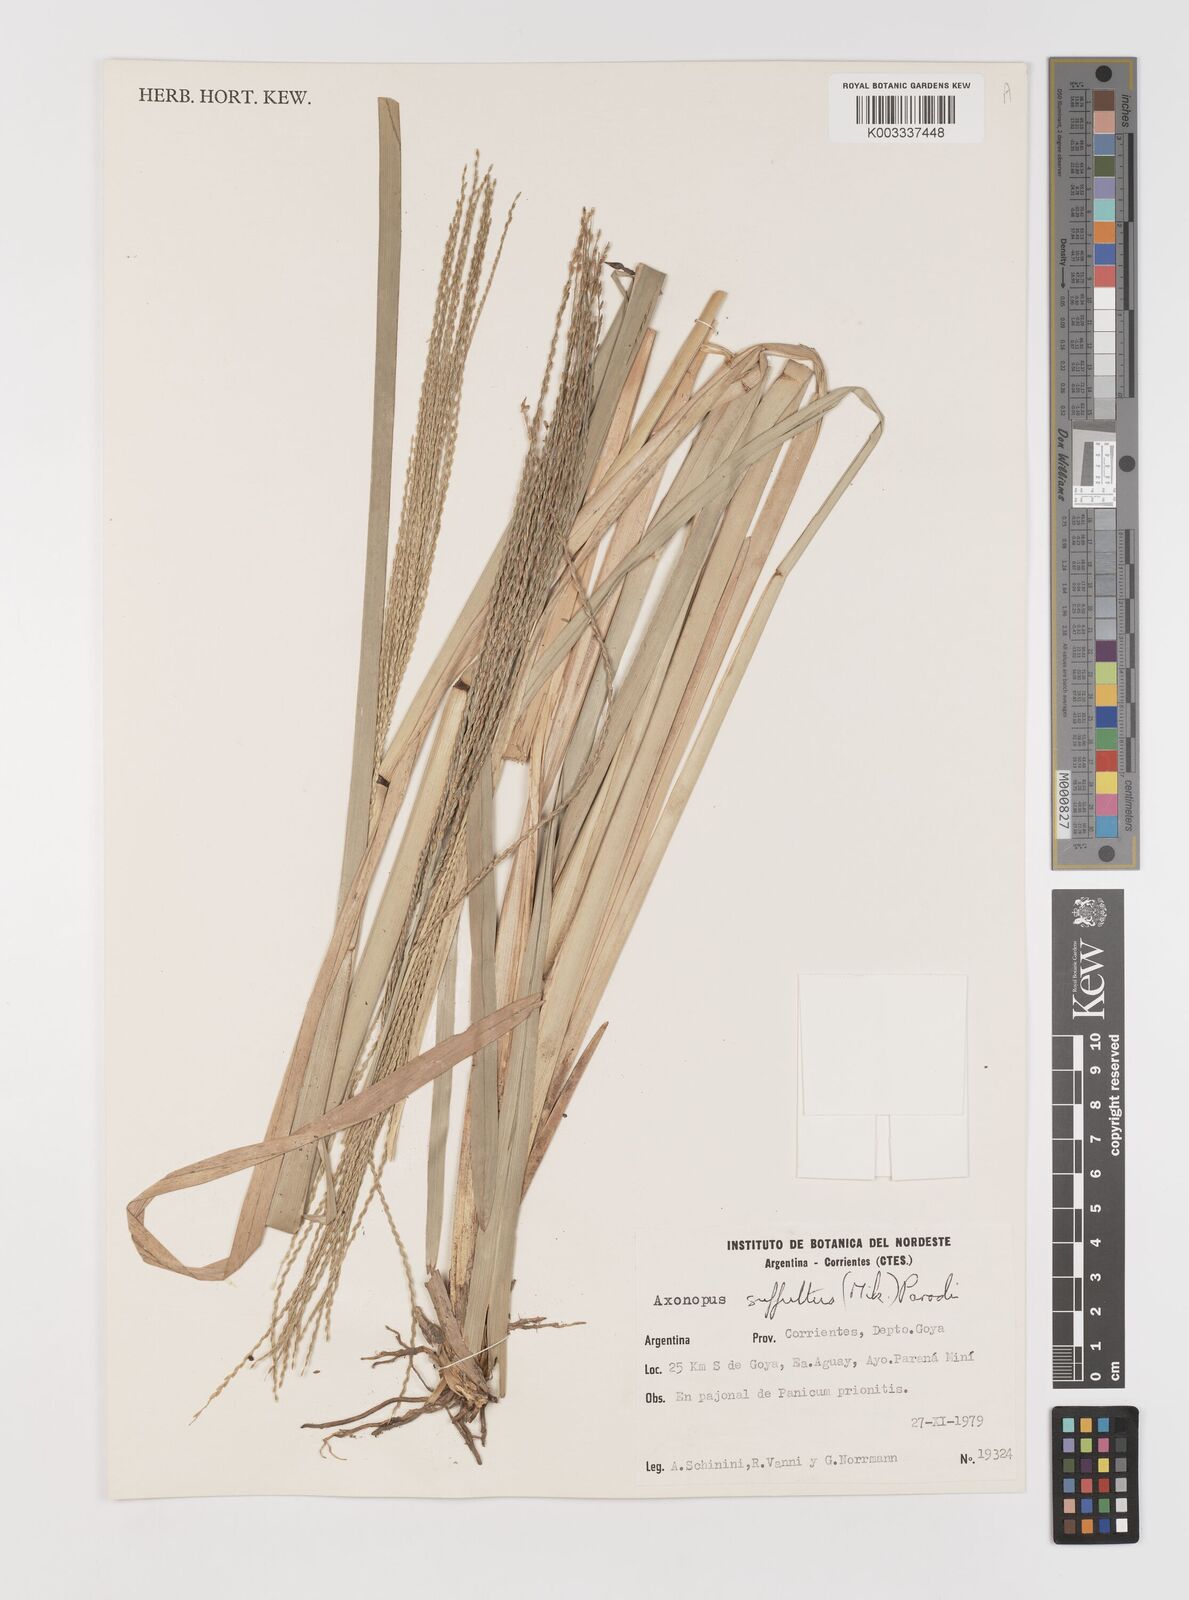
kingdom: Plantae
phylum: Tracheophyta
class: Liliopsida
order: Poales
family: Poaceae
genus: Axonopus
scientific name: Axonopus suffultus
